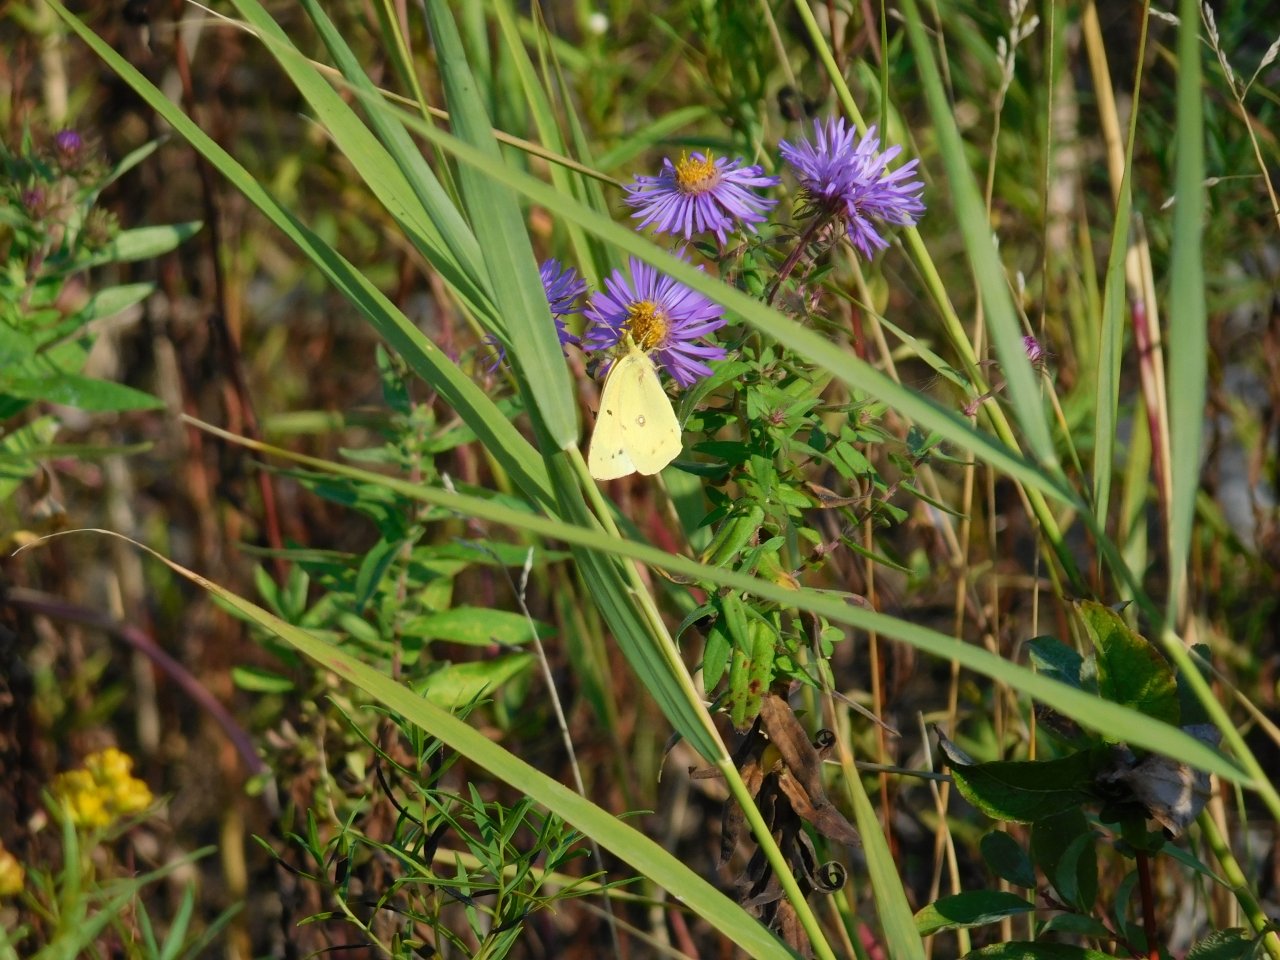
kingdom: Animalia
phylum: Arthropoda
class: Insecta
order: Lepidoptera
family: Pieridae
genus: Colias
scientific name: Colias philodice
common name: Clouded Sulphur
